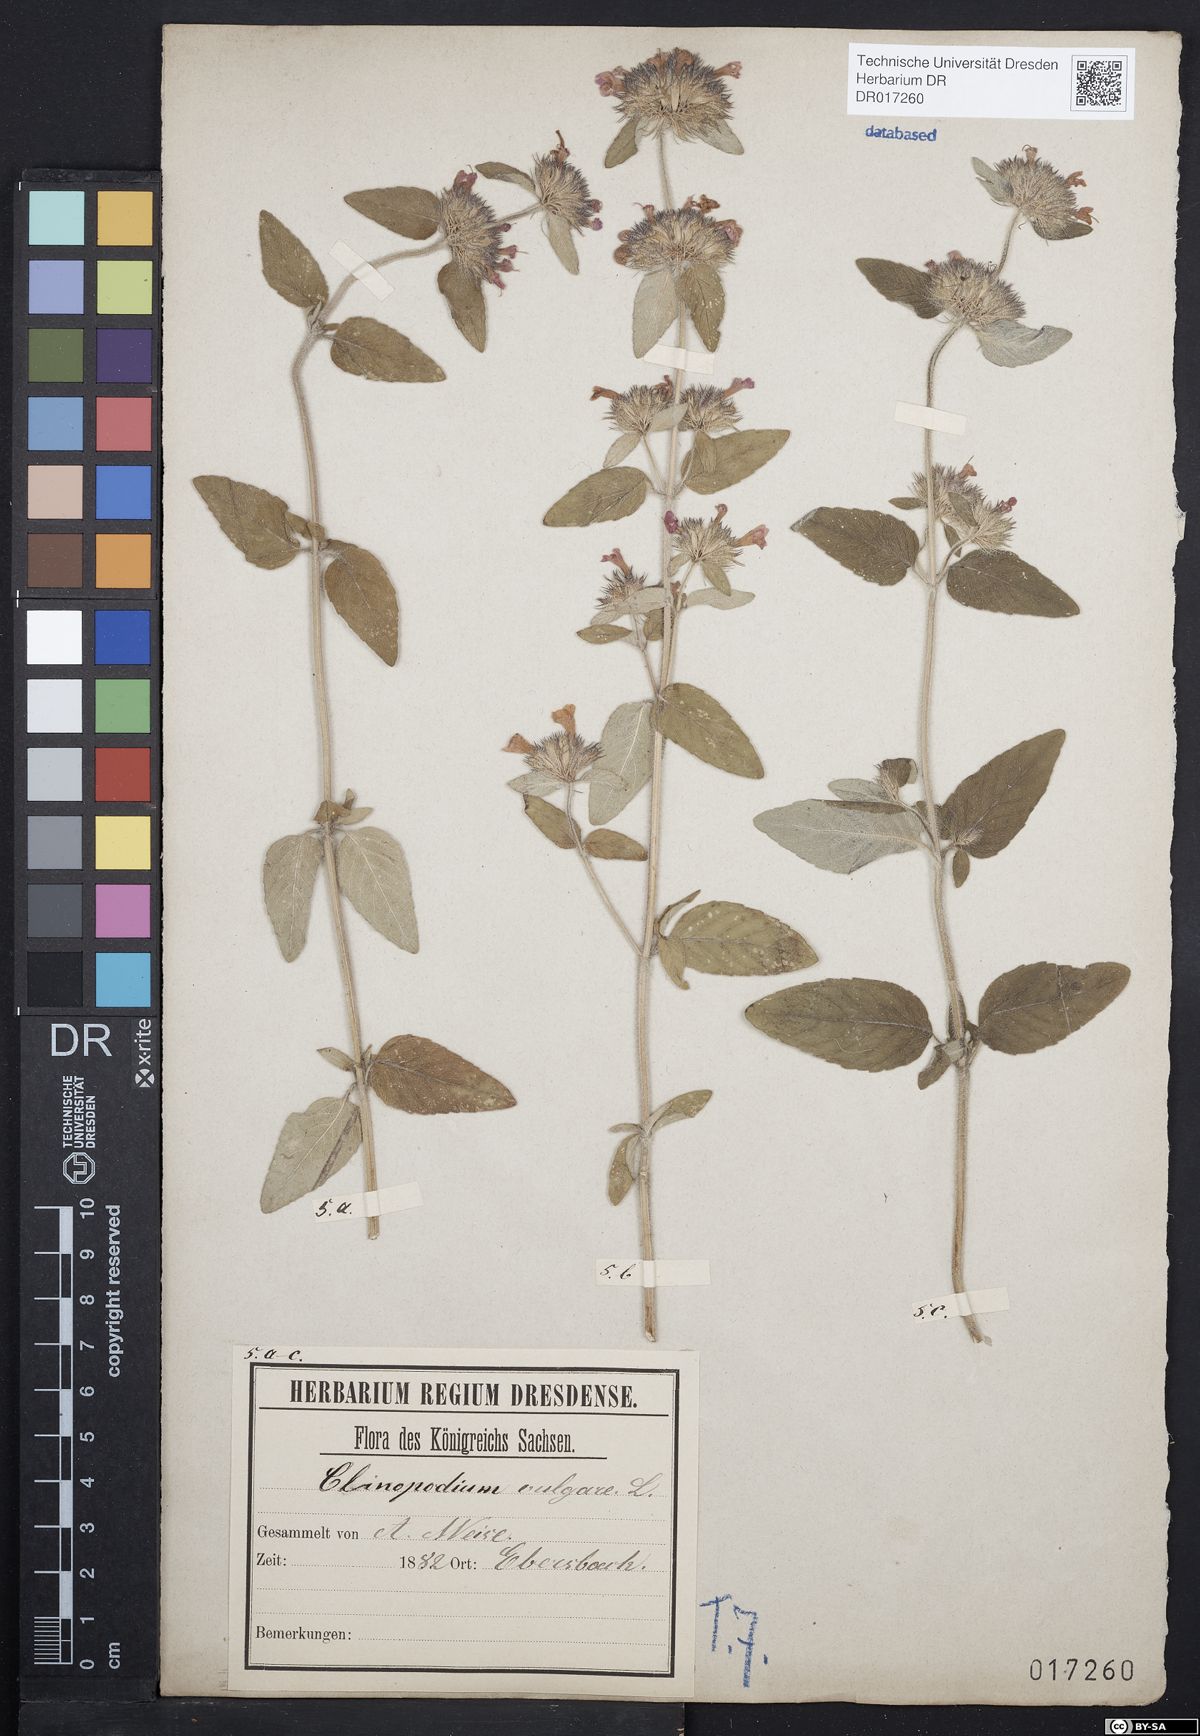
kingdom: Plantae
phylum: Tracheophyta
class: Magnoliopsida
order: Lamiales
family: Lamiaceae
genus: Clinopodium
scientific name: Clinopodium vulgare
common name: Wild basil
